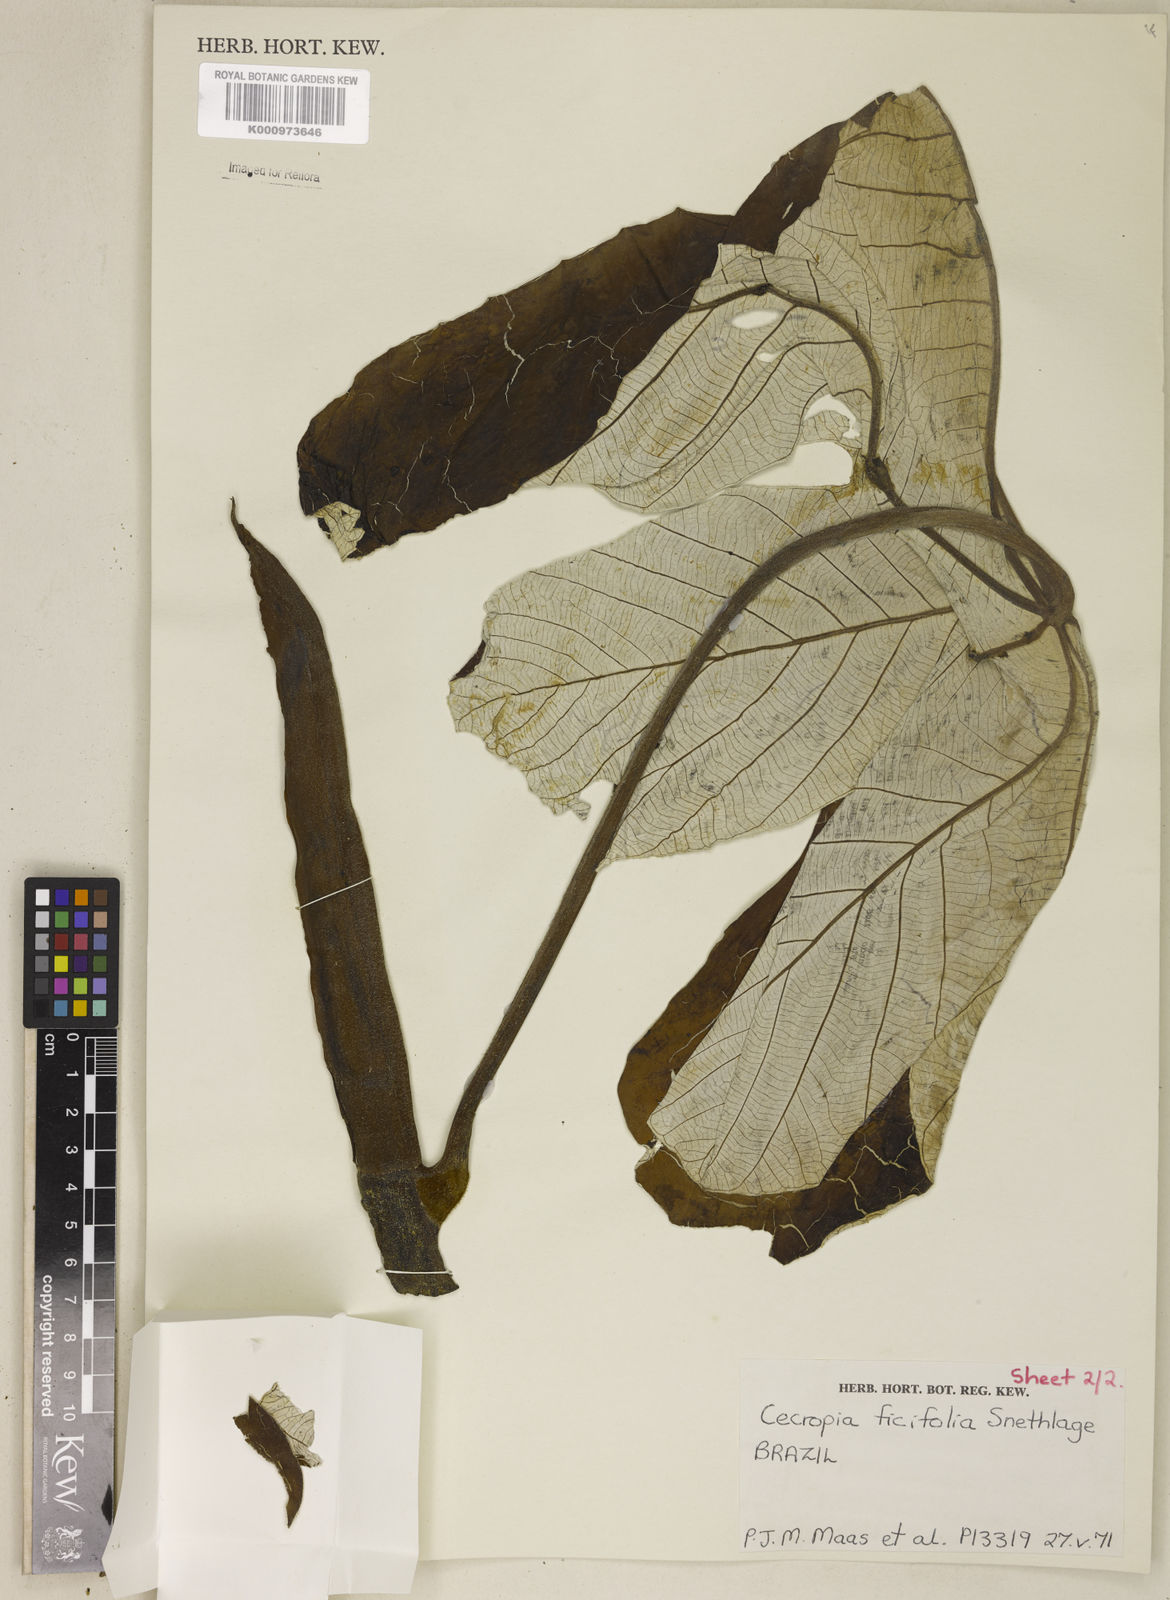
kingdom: Plantae
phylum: Tracheophyta
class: Magnoliopsida
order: Rosales
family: Urticaceae
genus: Cecropia
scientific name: Cecropia ficifolia
